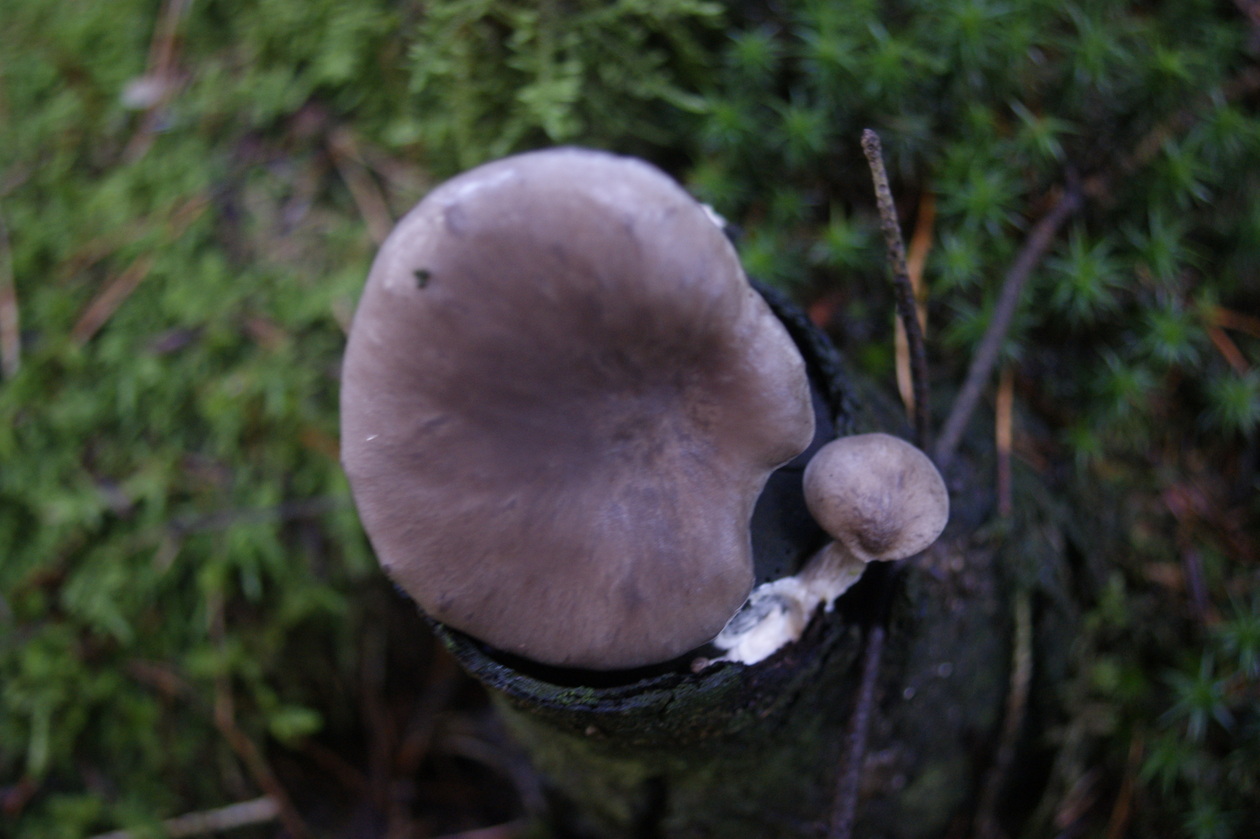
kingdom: Fungi
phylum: Basidiomycota
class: Agaricomycetes
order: Agaricales
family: Pleurotaceae
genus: Pleurotus
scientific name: Pleurotus ostreatus
